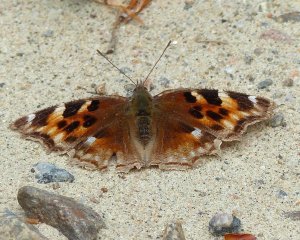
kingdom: Animalia
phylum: Arthropoda
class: Insecta
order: Lepidoptera
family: Nymphalidae
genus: Polygonia
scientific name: Polygonia vaualbum
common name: Compton Tortoiseshell
